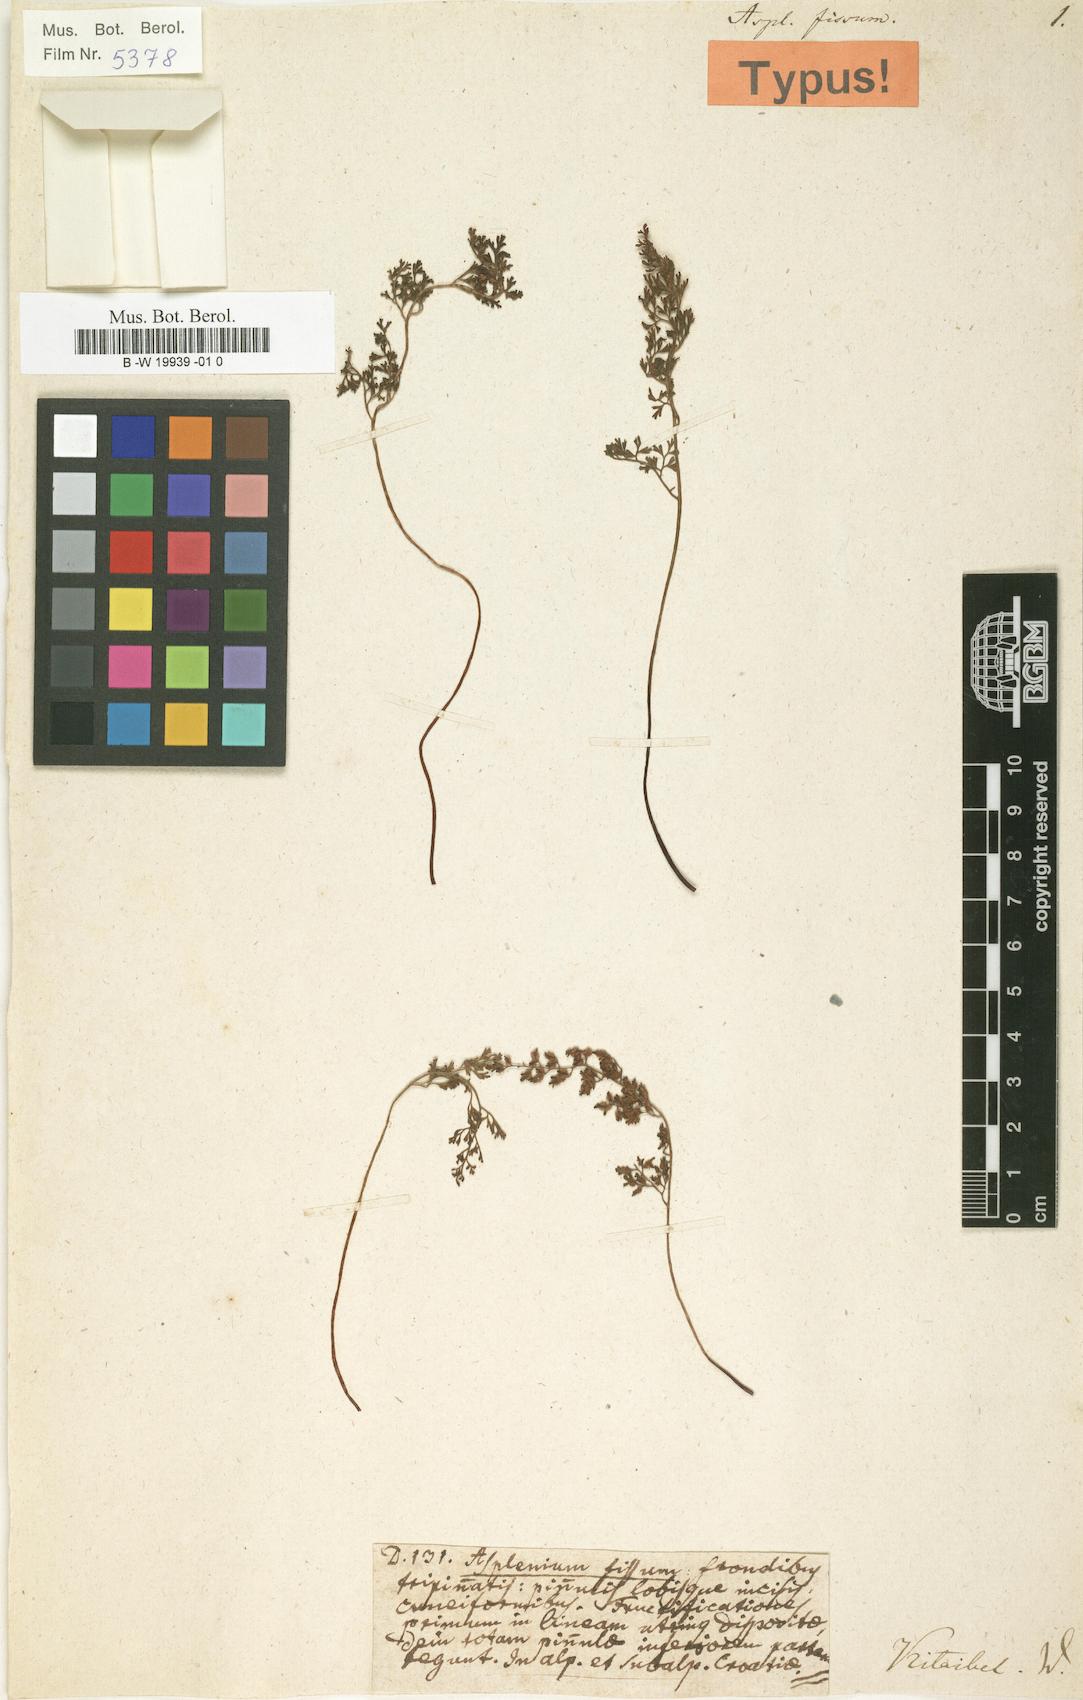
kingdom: Plantae
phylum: Tracheophyta
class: Polypodiopsida
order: Polypodiales
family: Aspleniaceae
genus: Asplenium
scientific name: Asplenium fissum
